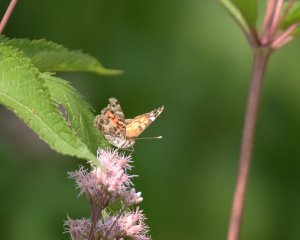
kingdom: Animalia
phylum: Arthropoda
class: Insecta
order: Lepidoptera
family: Nymphalidae
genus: Vanessa
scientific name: Vanessa virginiensis
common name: American Lady
